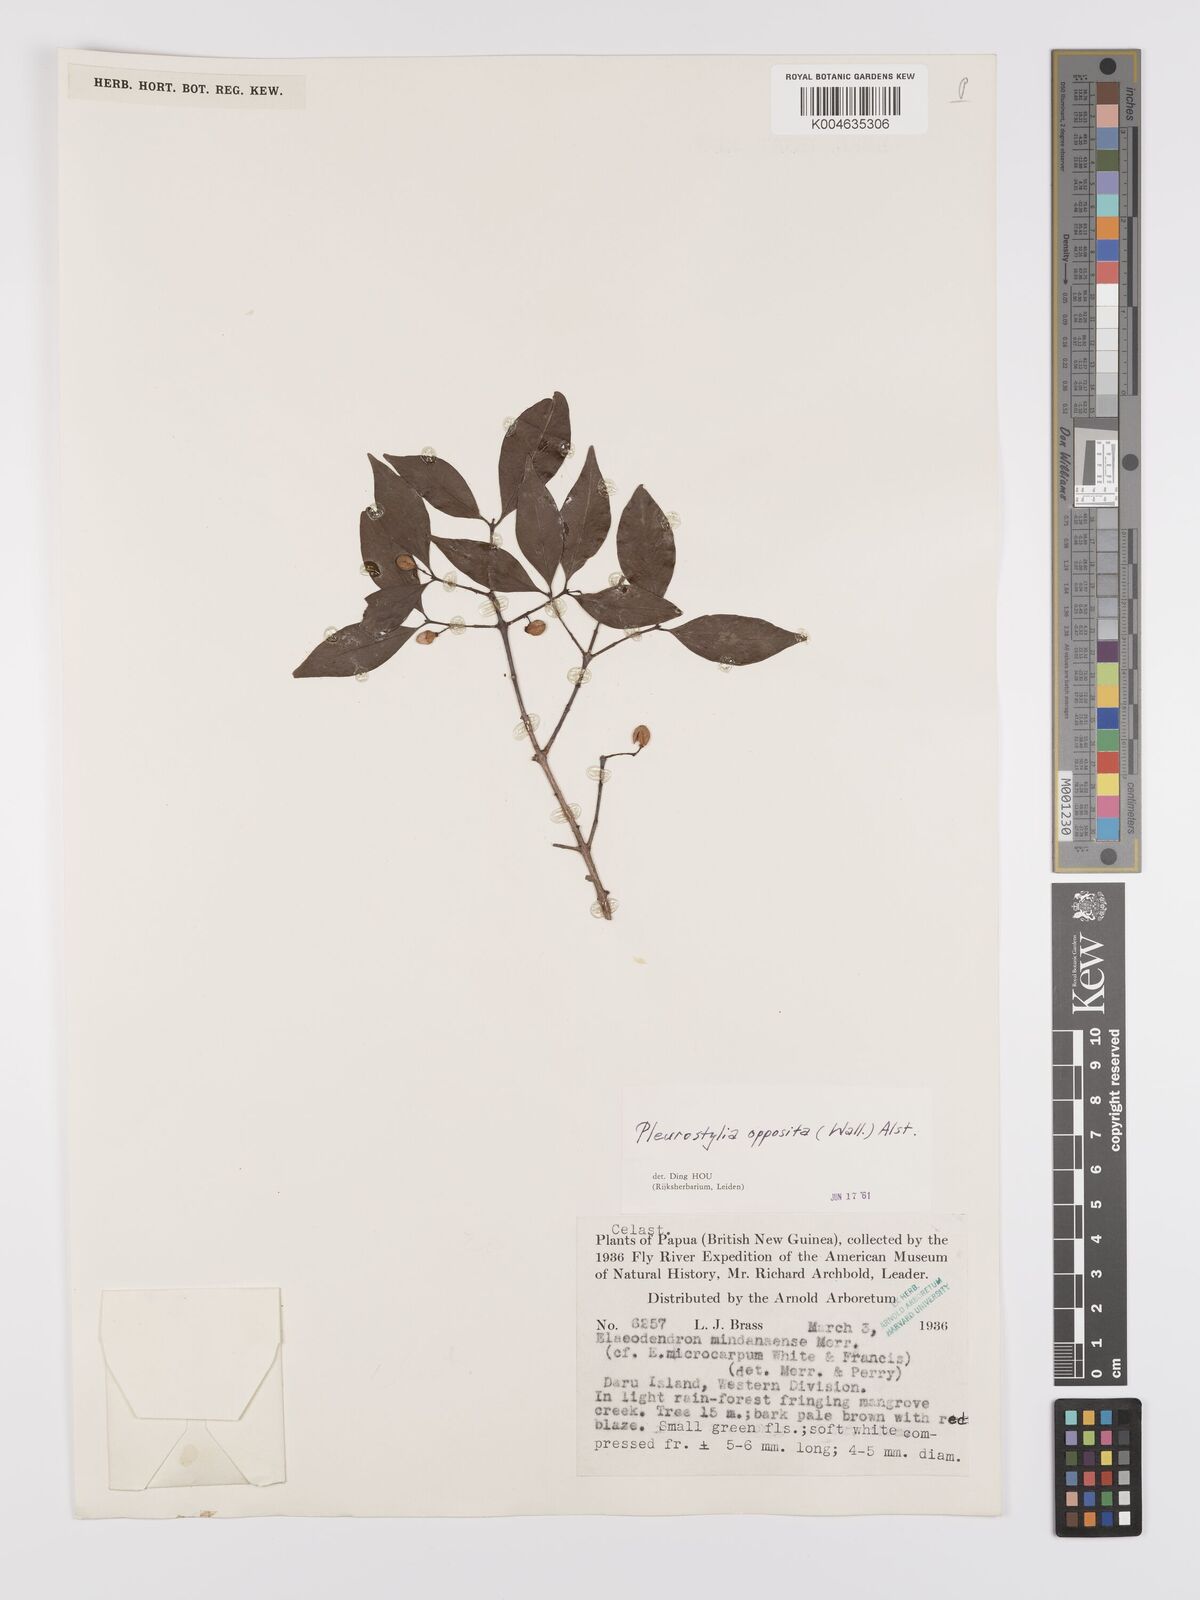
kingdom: Plantae
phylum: Tracheophyta
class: Magnoliopsida
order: Celastrales
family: Celastraceae
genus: Pleurostylia
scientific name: Pleurostylia opposita
